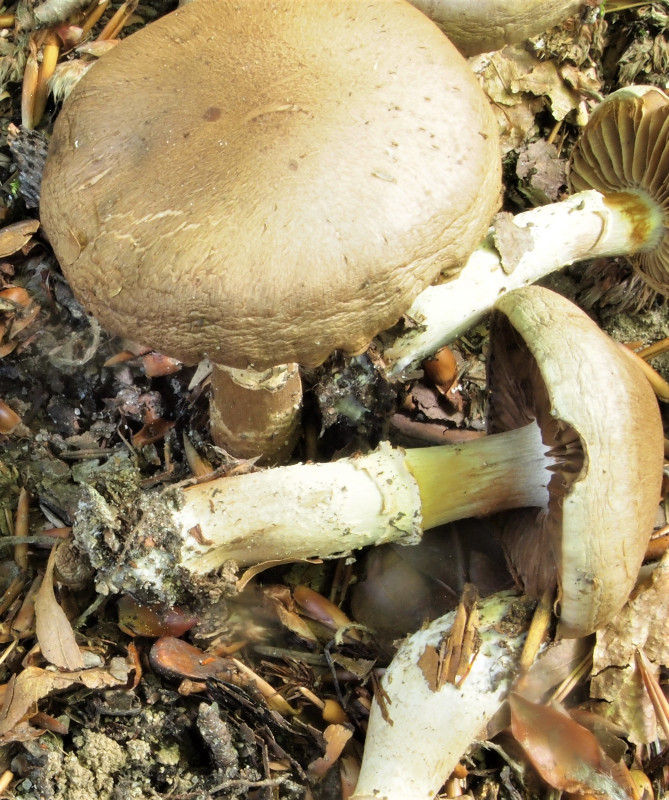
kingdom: Fungi
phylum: Basidiomycota
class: Agaricomycetes
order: Agaricales
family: Cortinariaceae
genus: Cortinarius
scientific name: Cortinarius torvus
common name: champignonagtig slørhat
